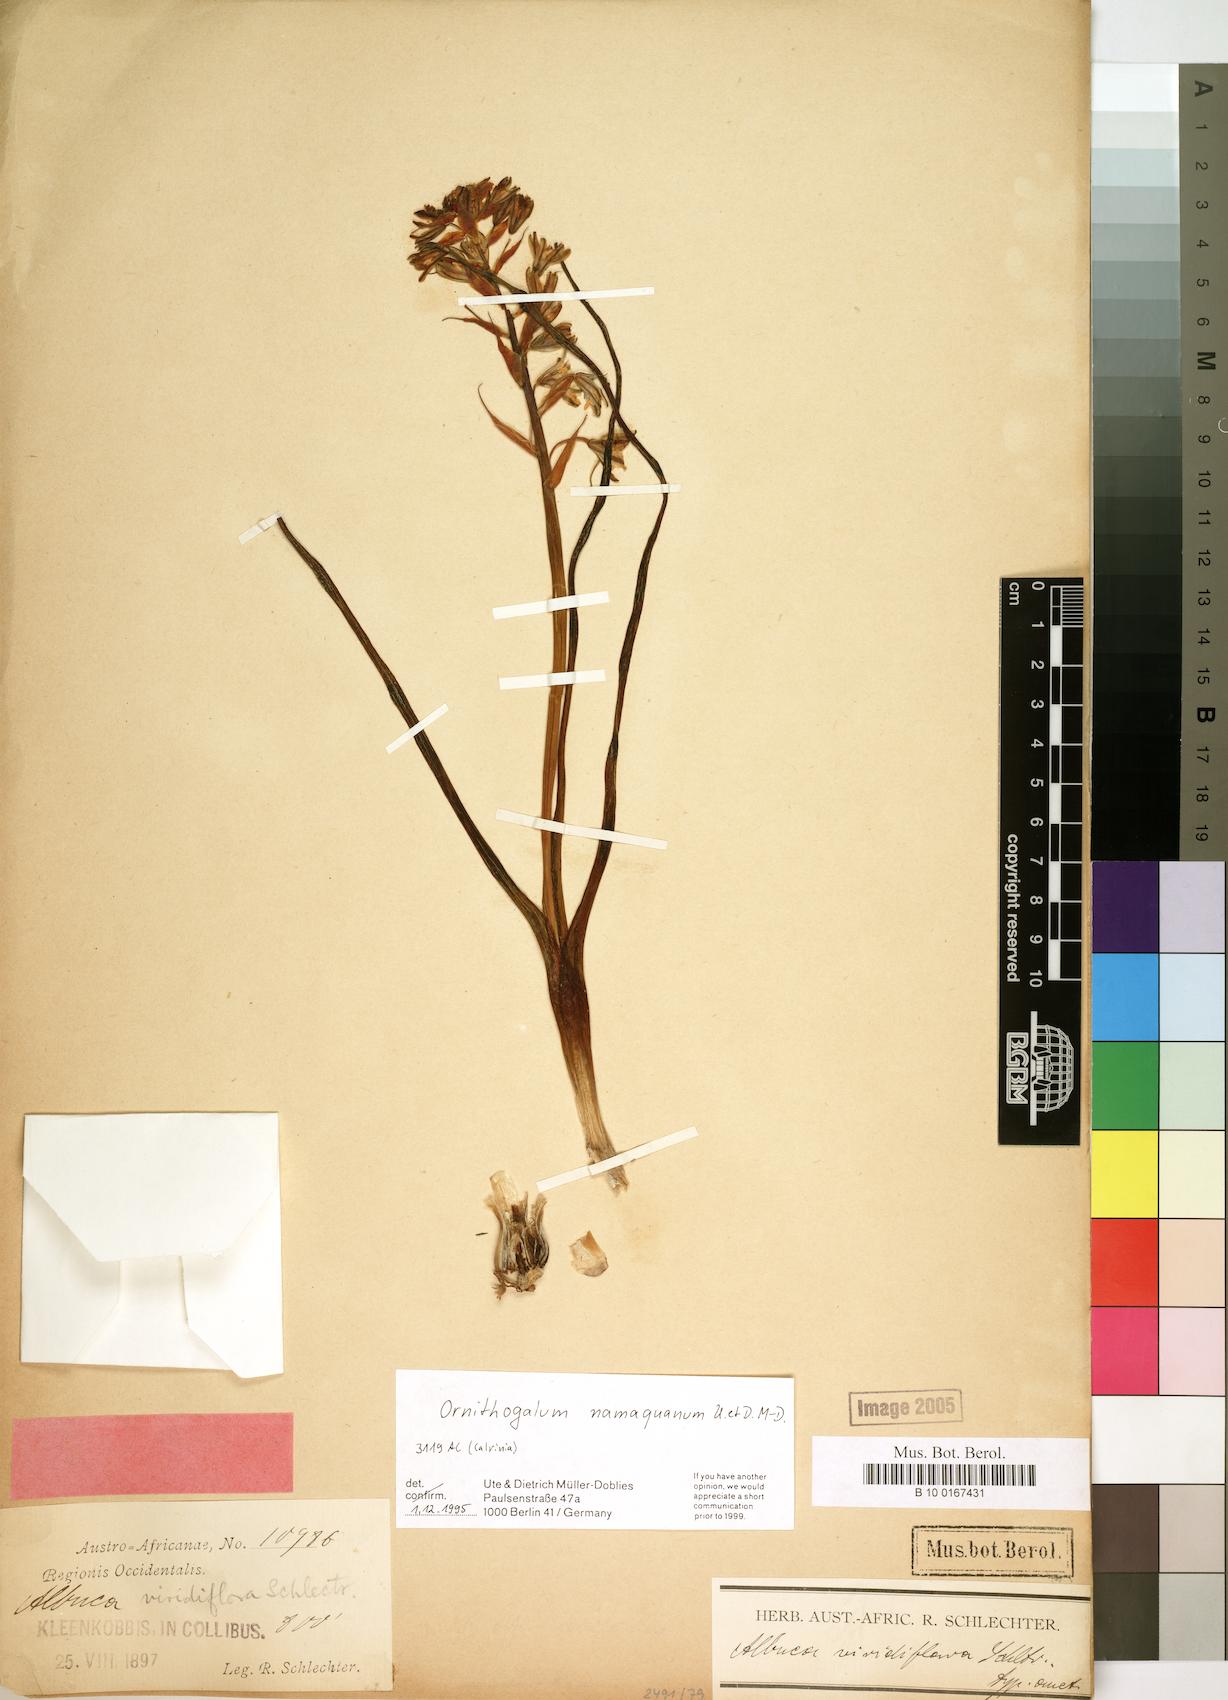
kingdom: Plantae
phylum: Tracheophyta
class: Liliopsida
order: Asparagales
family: Asparagaceae
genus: Albuca
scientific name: Albuca arenosa
